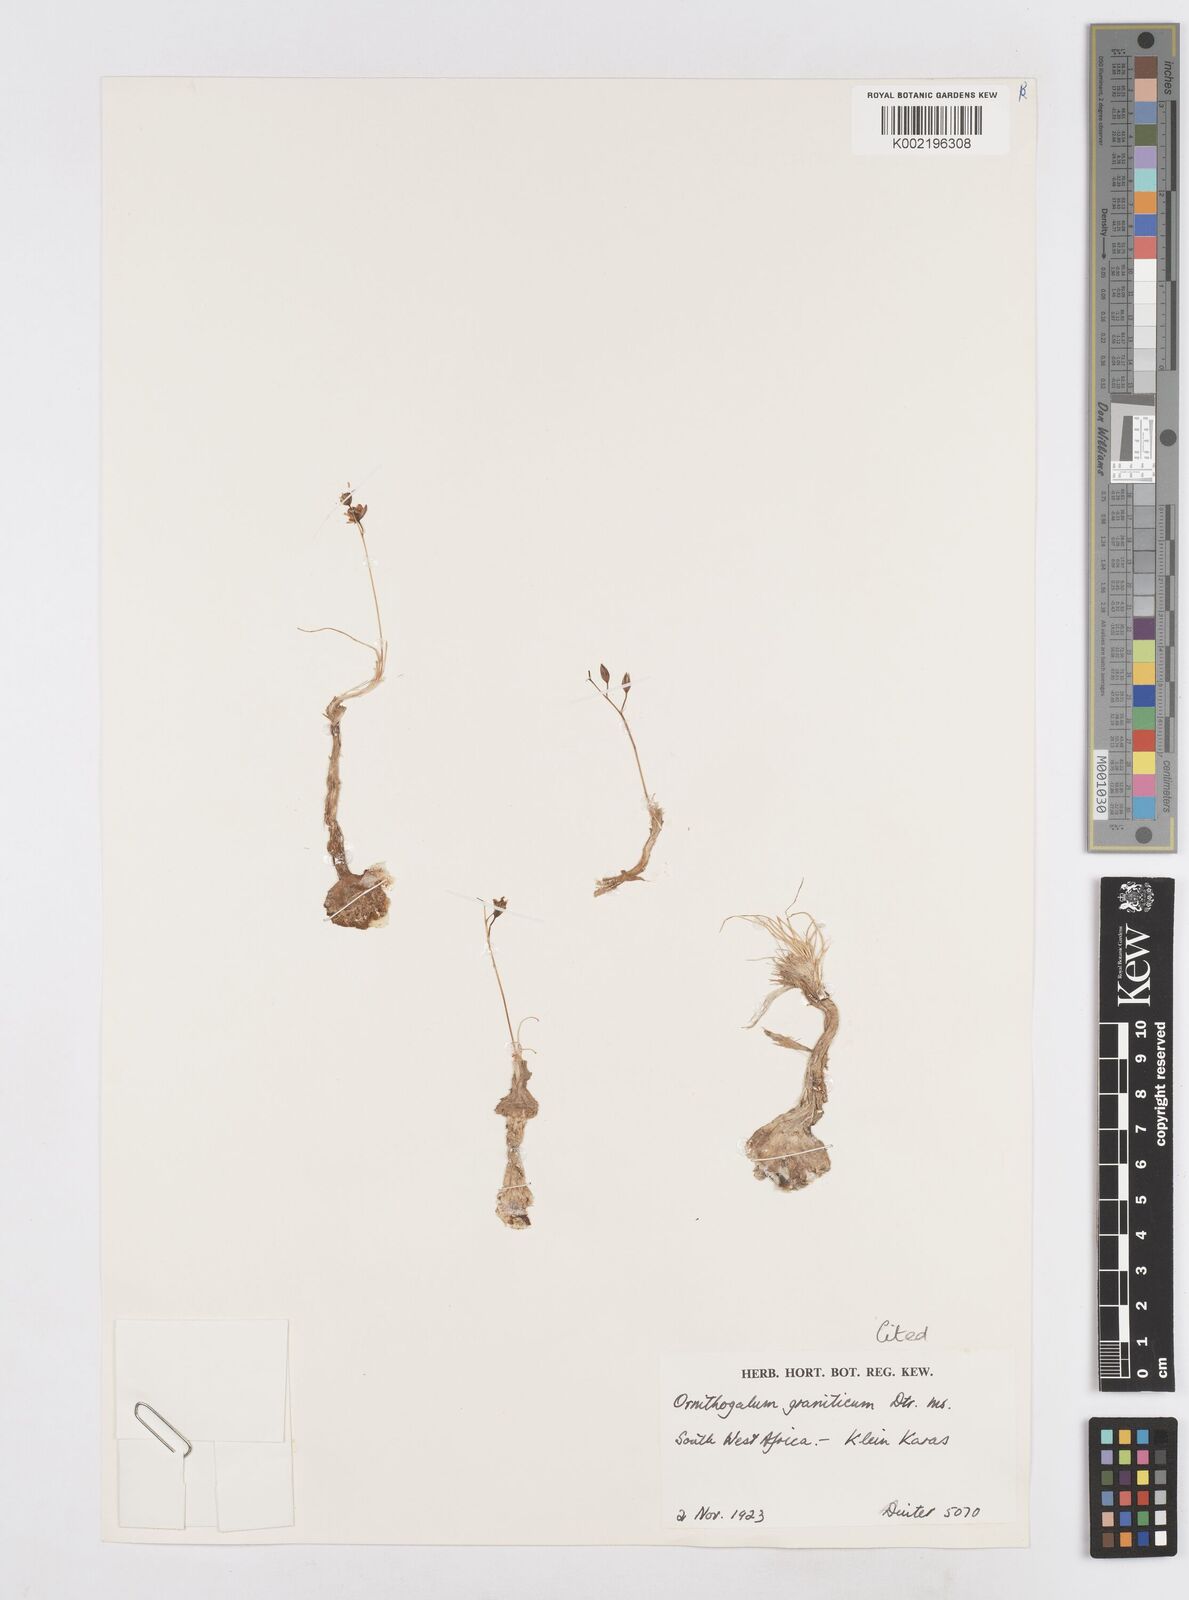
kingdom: Plantae
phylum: Tracheophyta
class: Liliopsida
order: Asparagales
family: Asparagaceae
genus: Ornithogalum
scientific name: Ornithogalum nanodes
